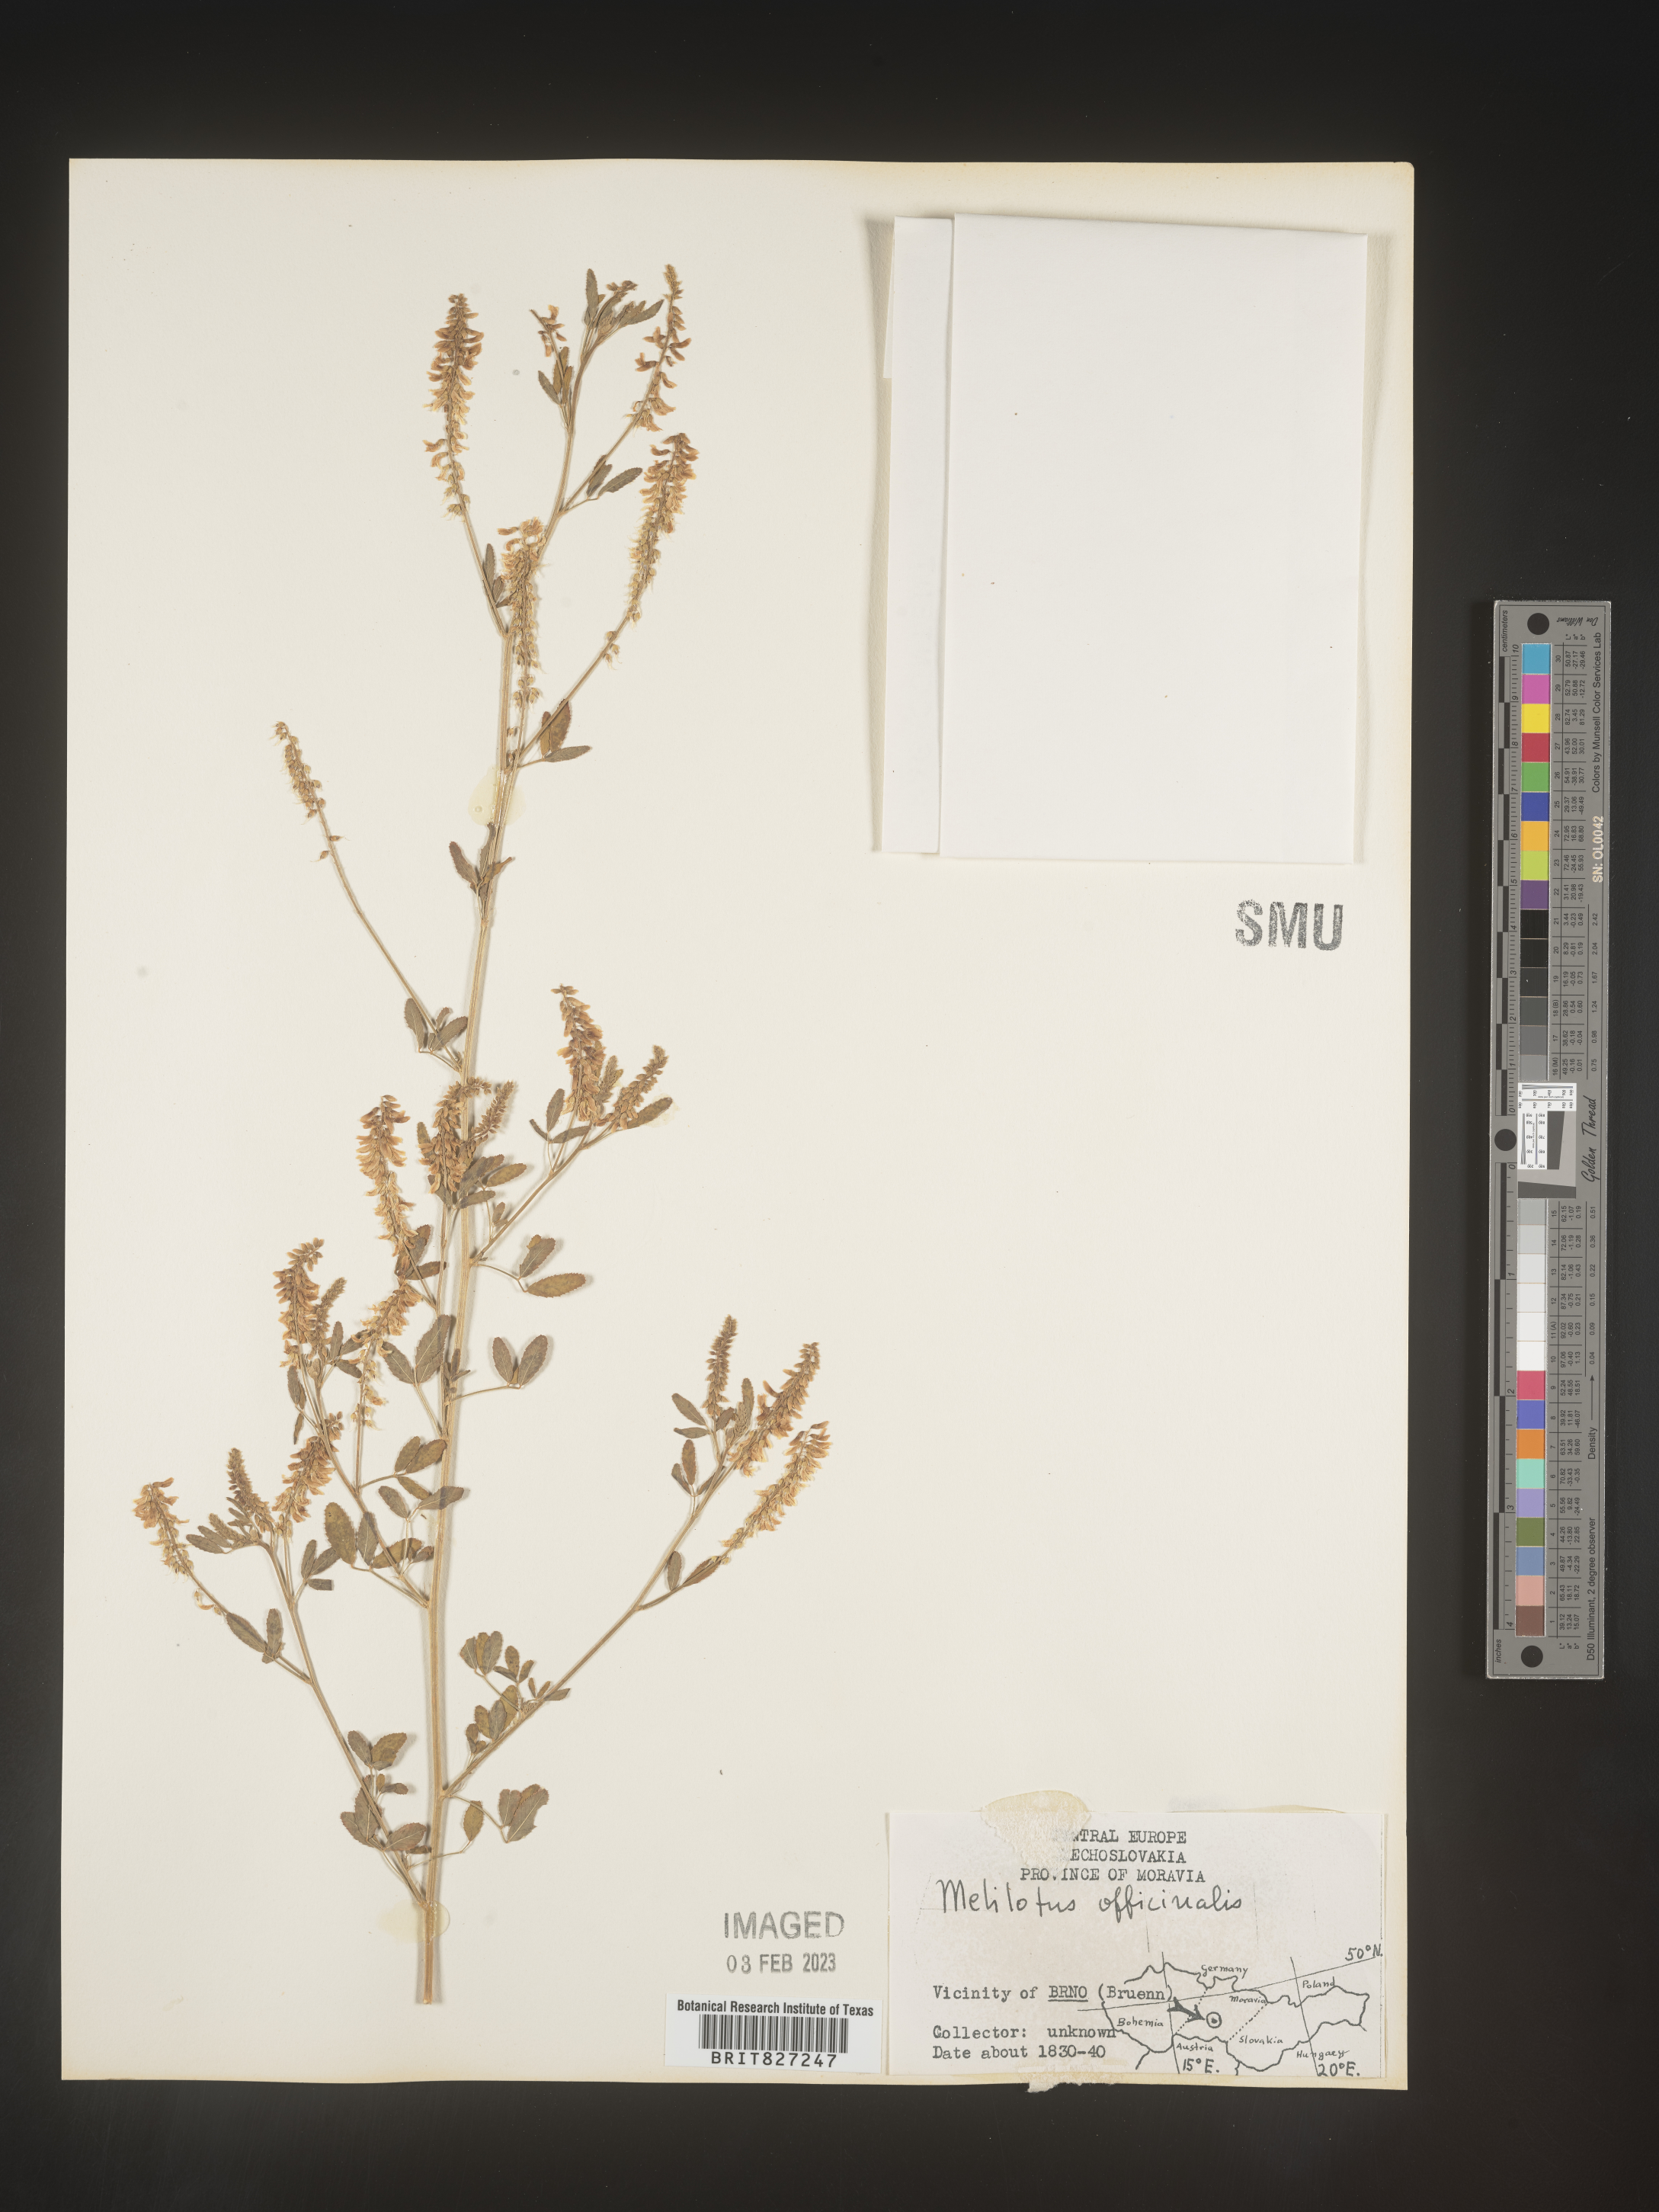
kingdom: Plantae
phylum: Tracheophyta
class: Magnoliopsida
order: Fabales
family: Fabaceae
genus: Melilotus
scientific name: Melilotus
